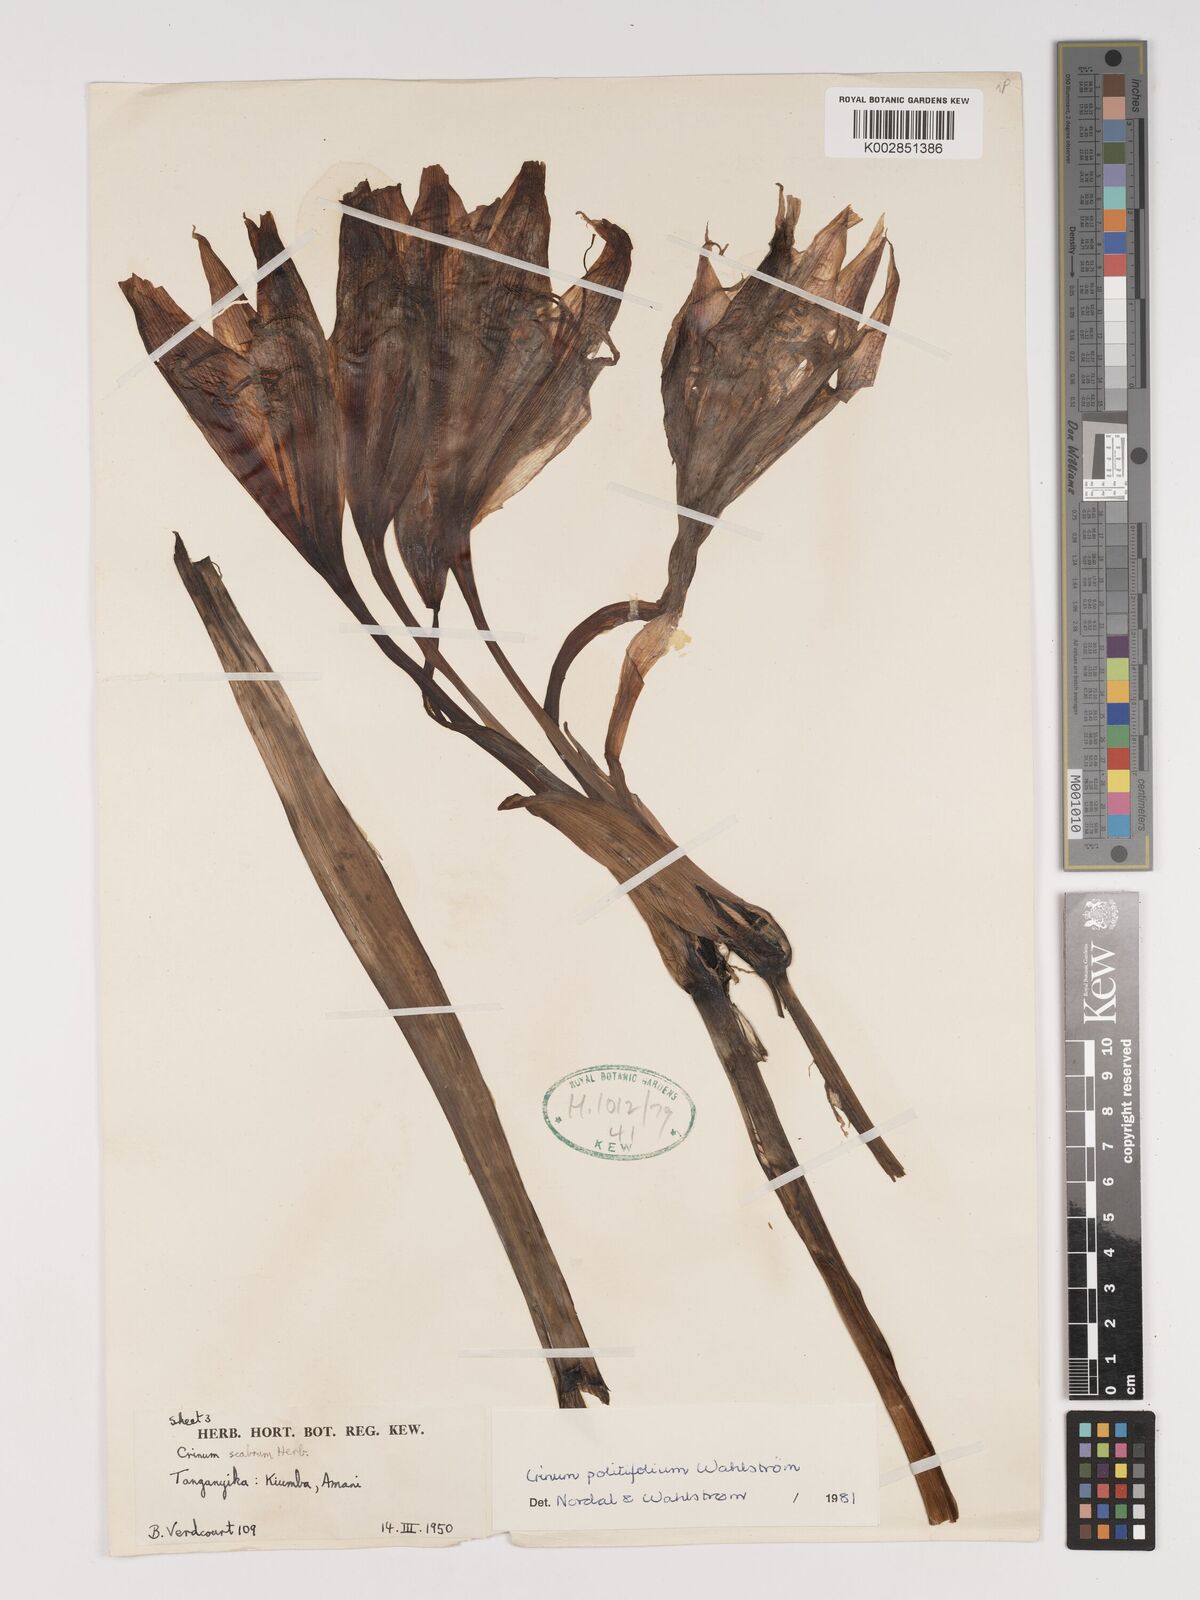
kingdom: Plantae
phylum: Tracheophyta
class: Liliopsida
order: Asparagales
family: Amaryllidaceae
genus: Crinum
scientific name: Crinum politifolium
